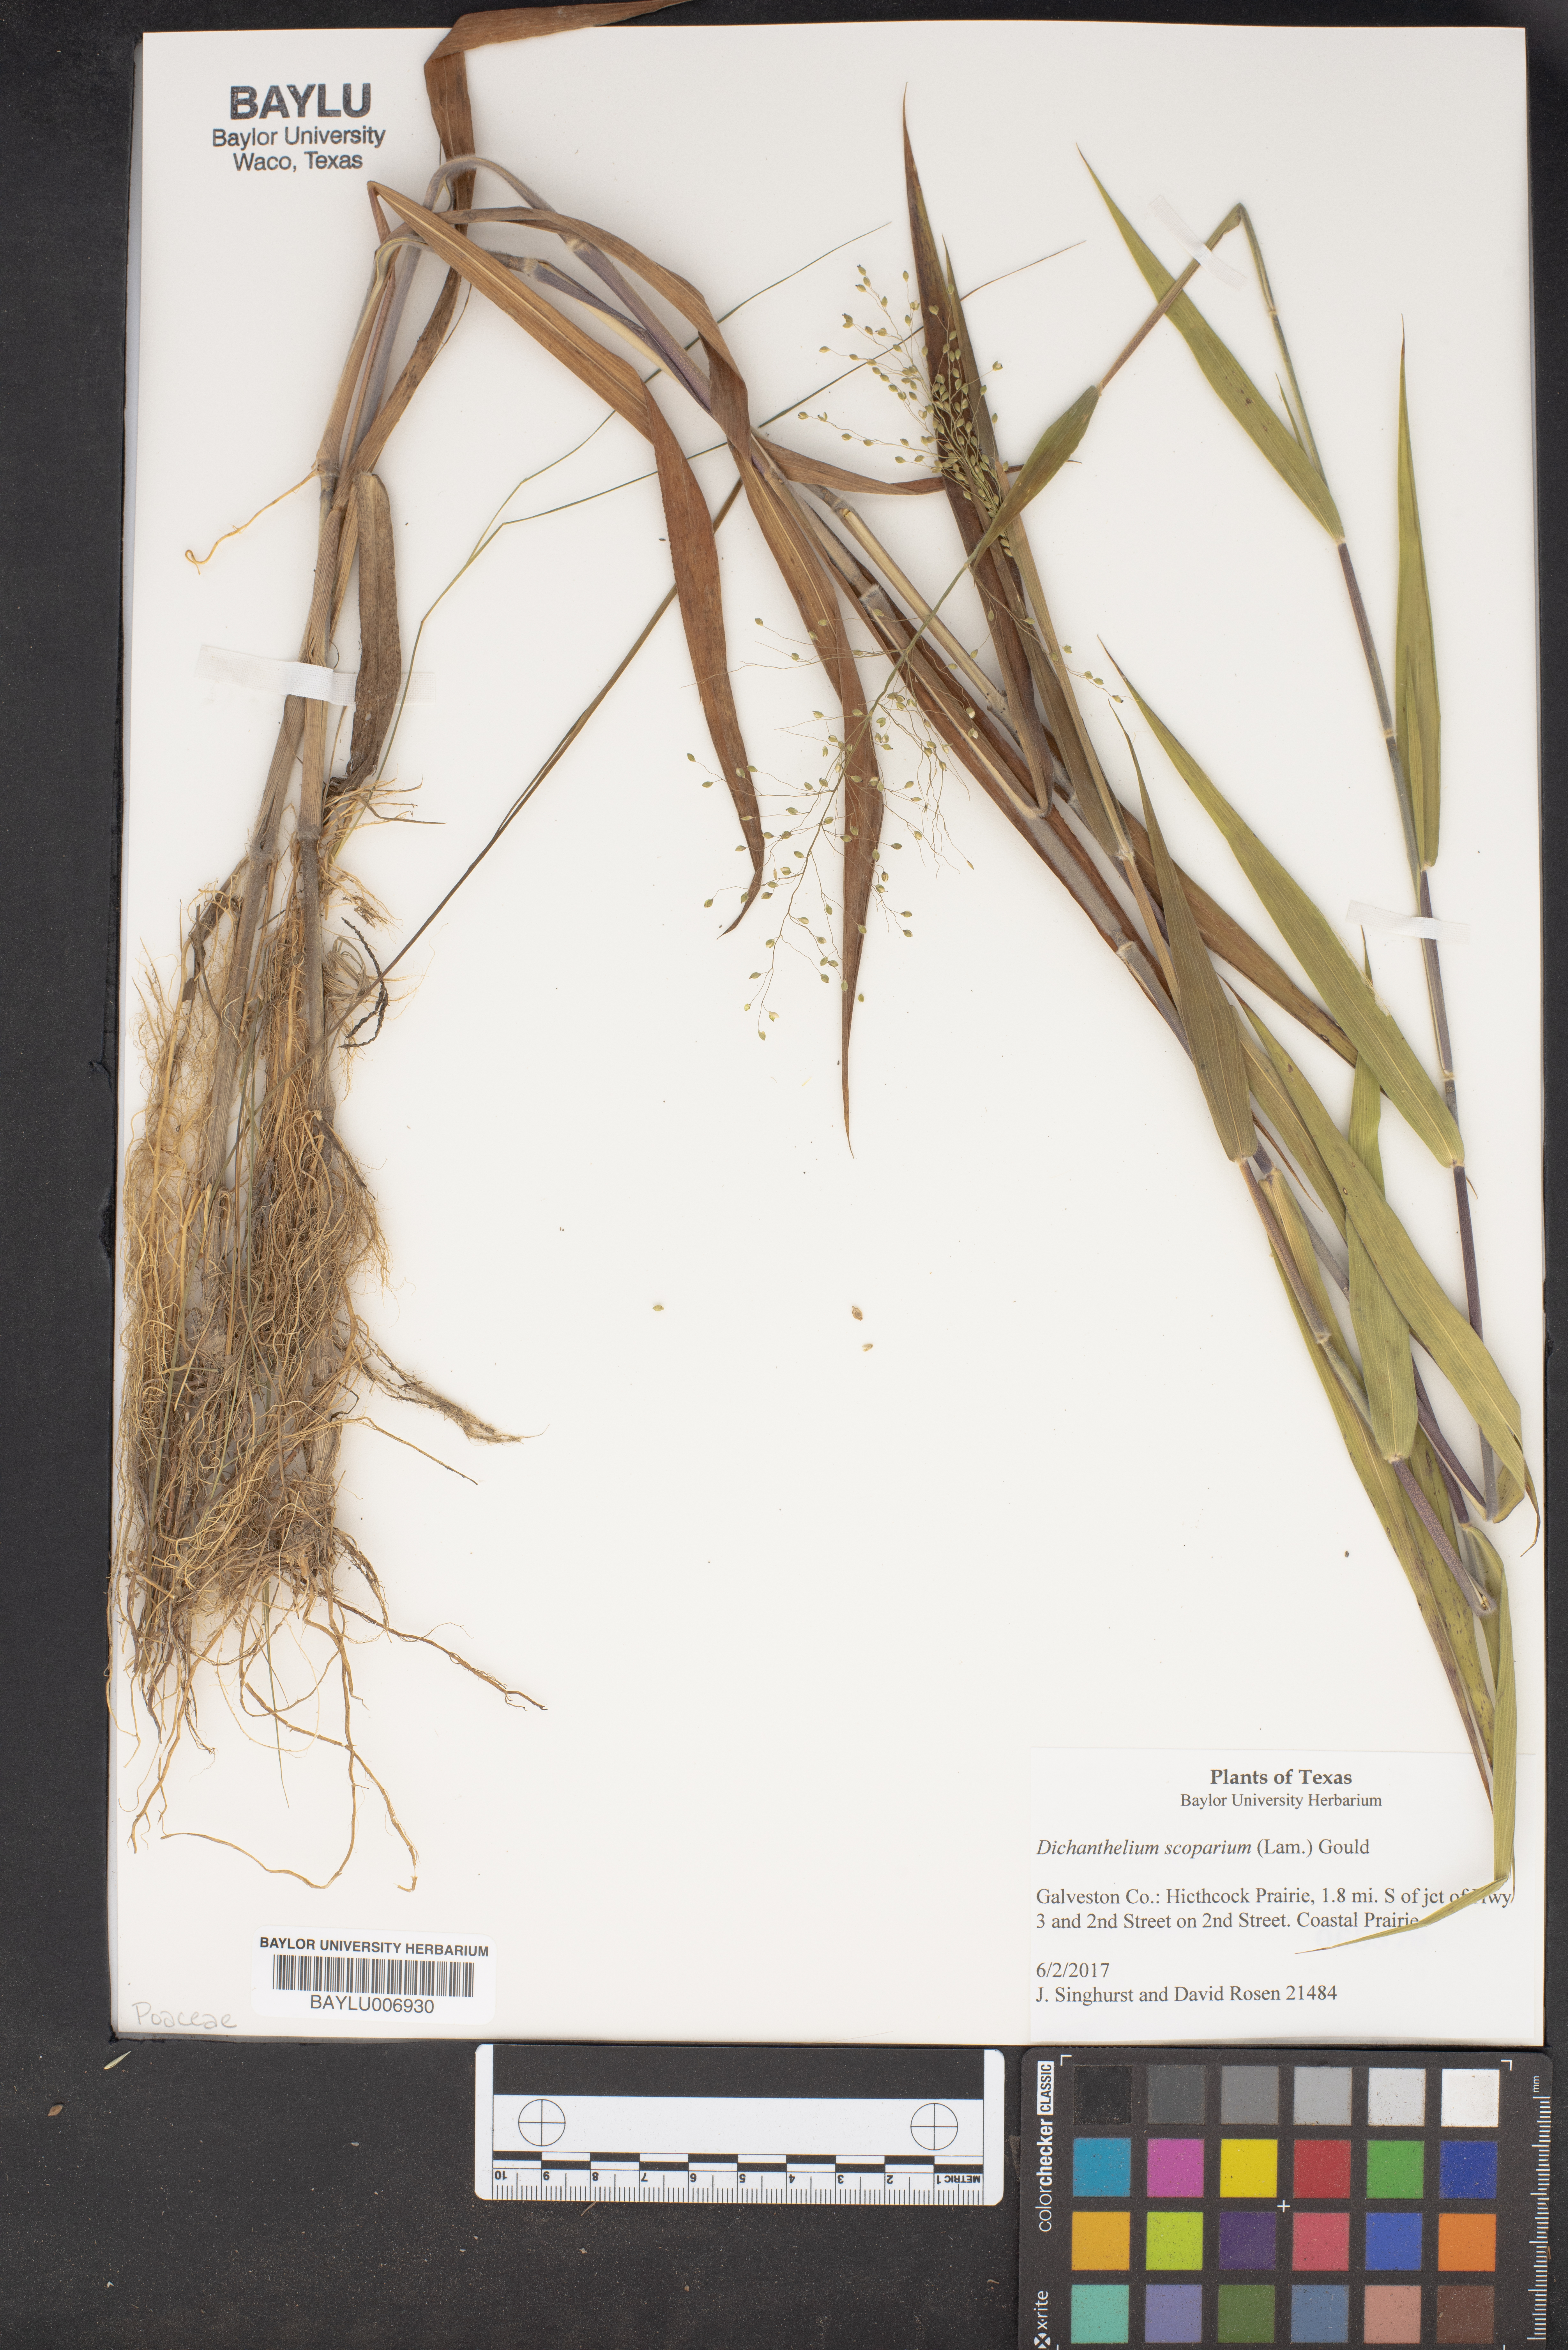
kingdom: Plantae
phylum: Tracheophyta
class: Liliopsida
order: Poales
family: Poaceae
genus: Dichanthelium
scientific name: Dichanthelium scoparium
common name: Velvety panic grass
